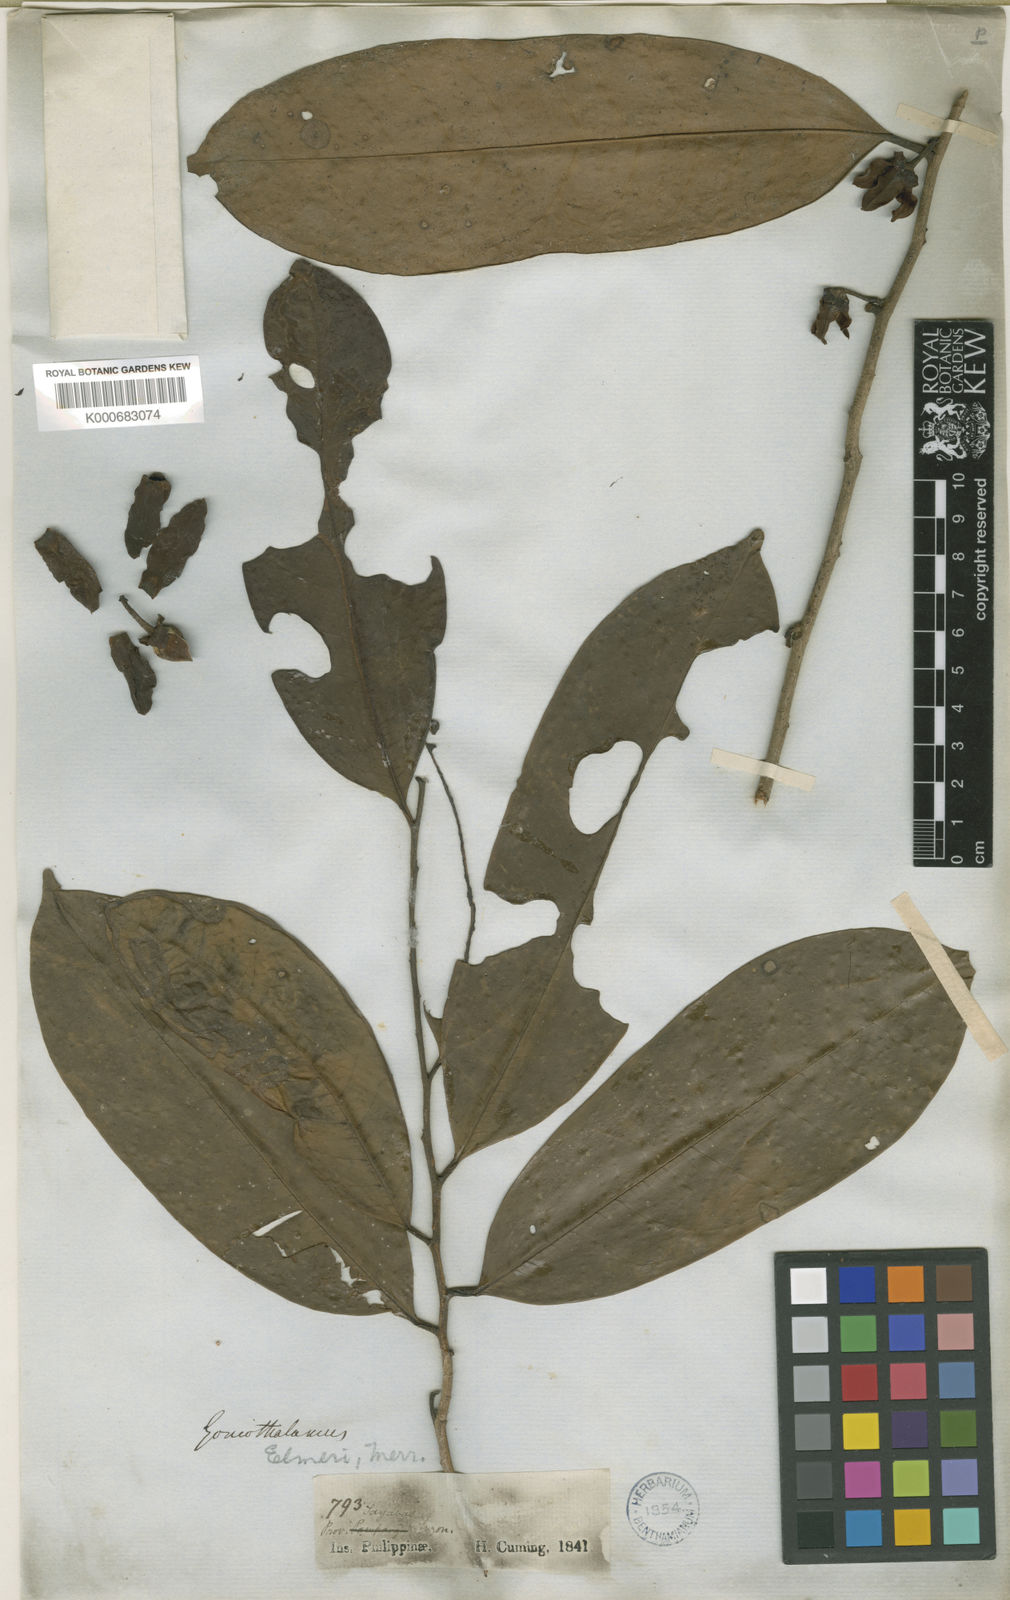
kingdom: Plantae
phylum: Tracheophyta
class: Magnoliopsida
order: Magnoliales
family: Annonaceae
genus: Goniothalamus
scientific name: Goniothalamus elmeri
